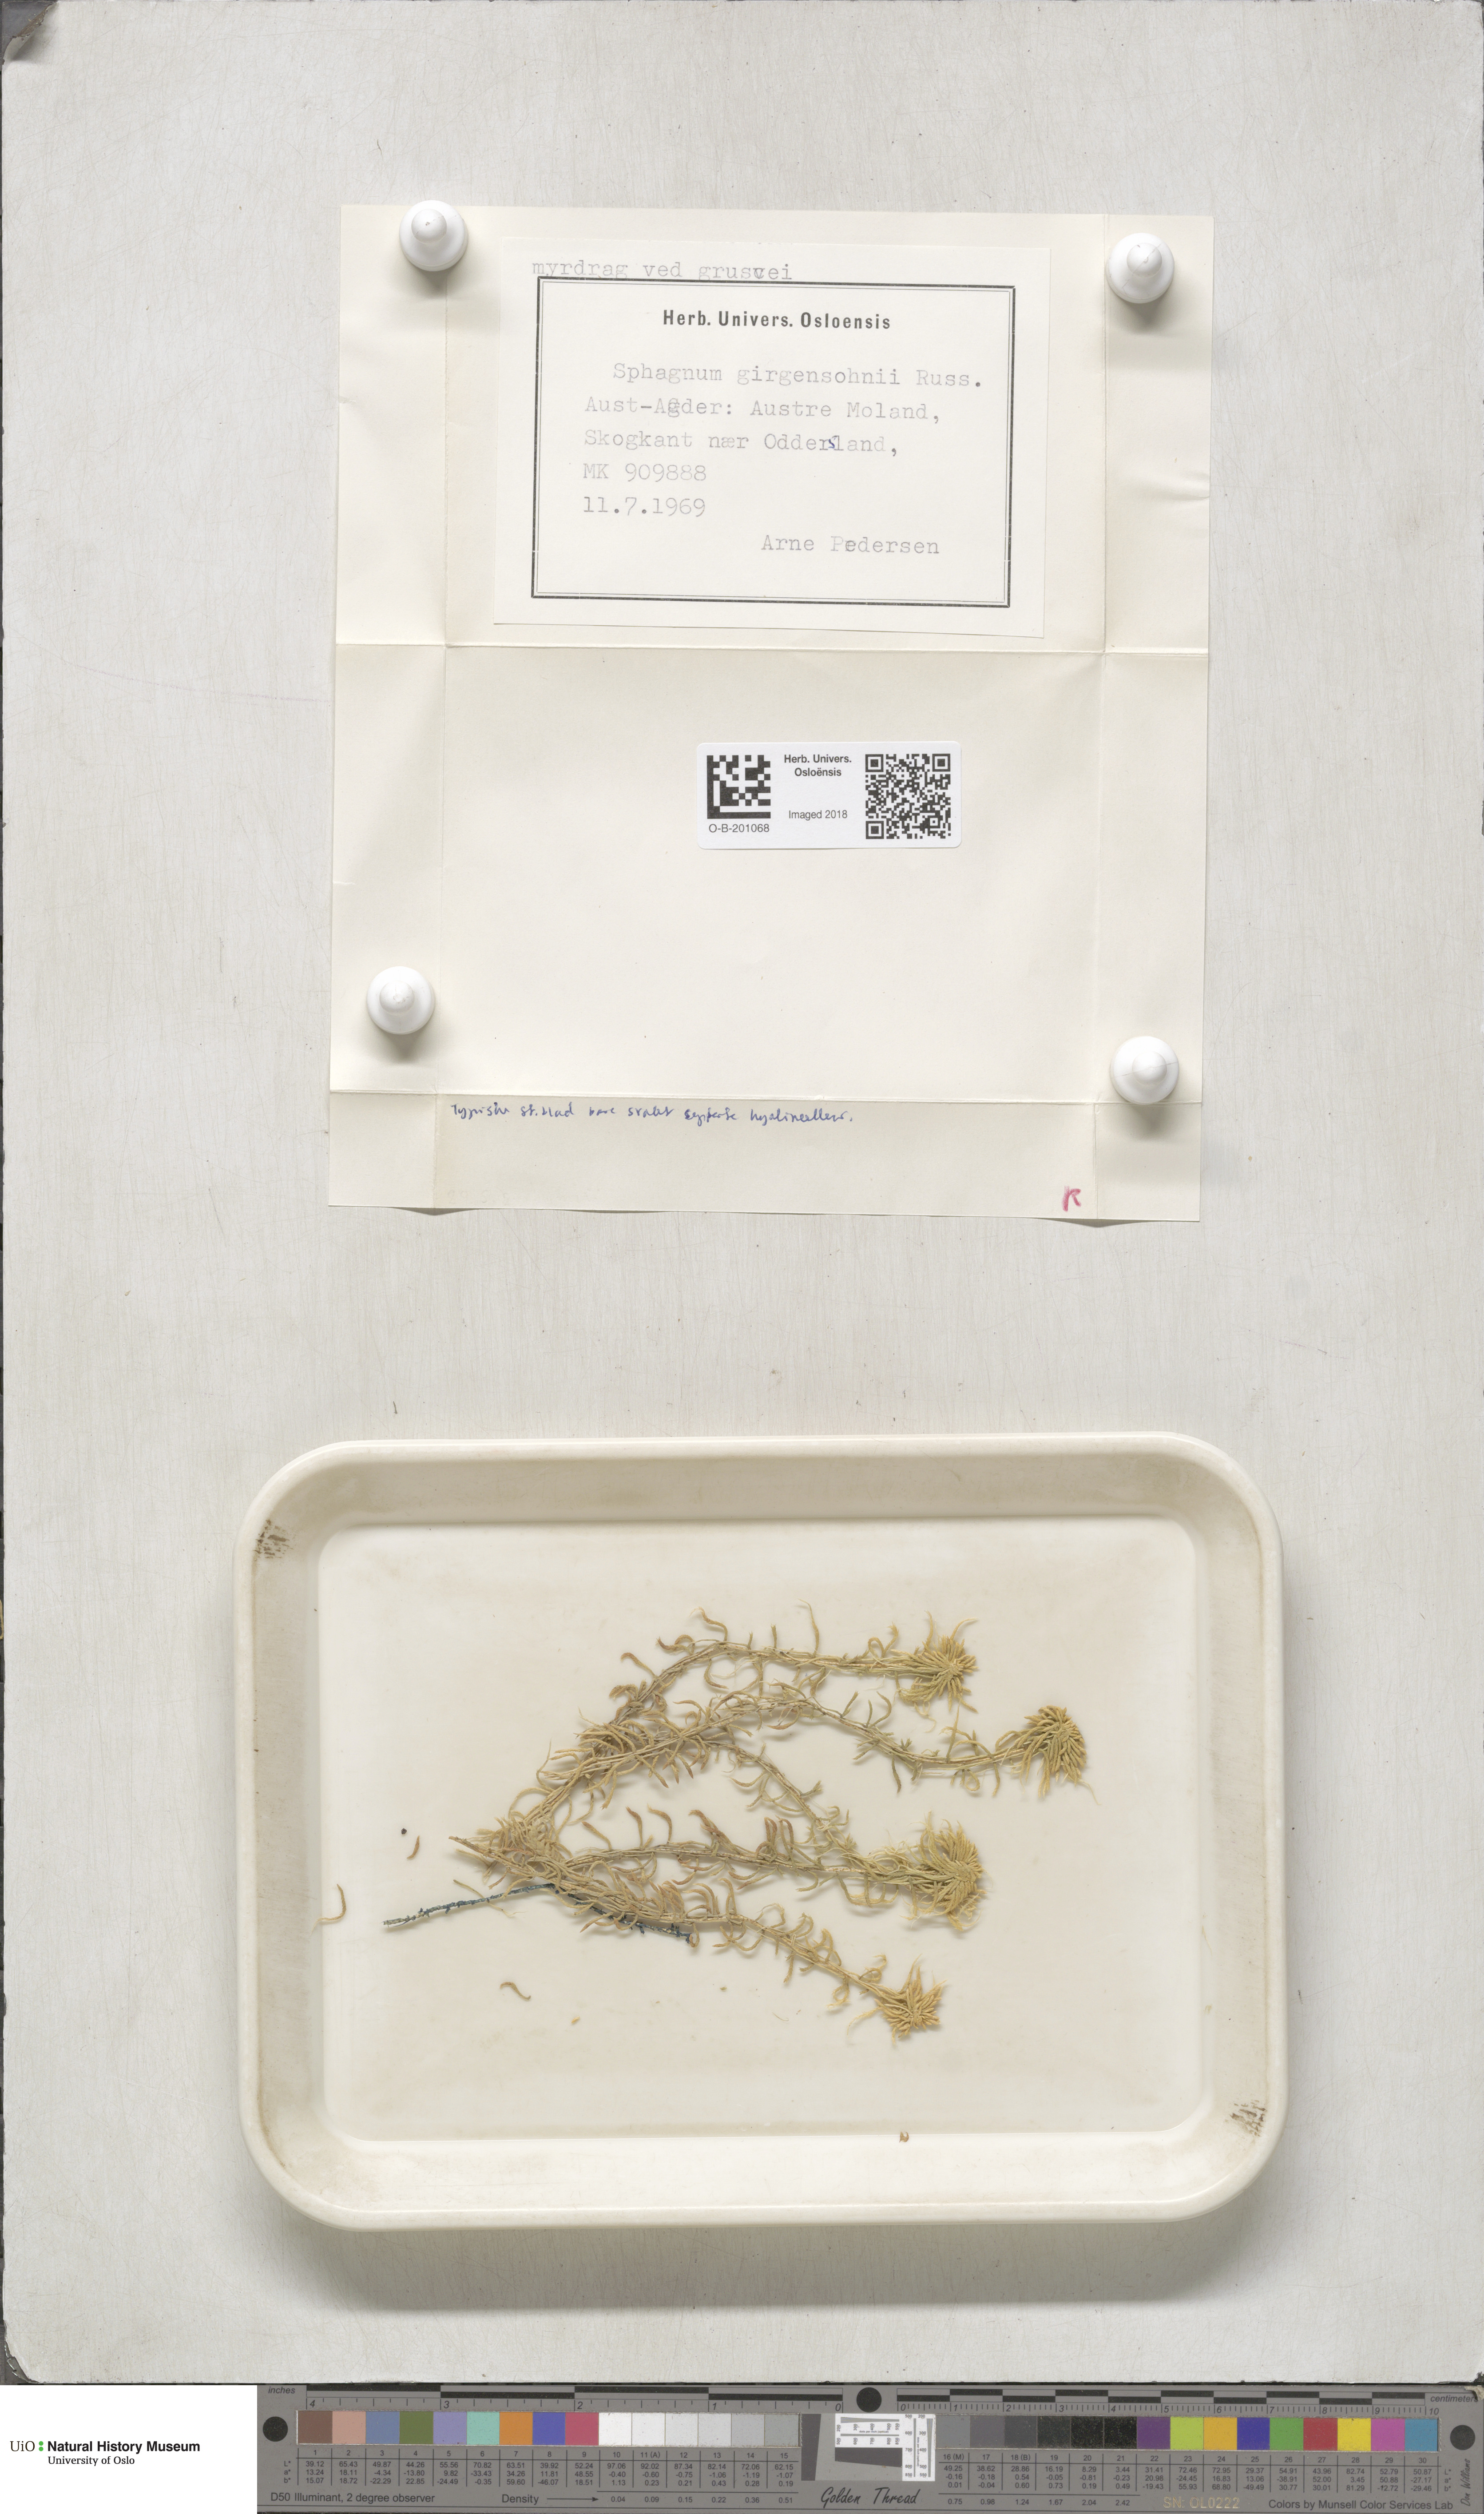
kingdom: Plantae
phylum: Bryophyta
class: Sphagnopsida
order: Sphagnales
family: Sphagnaceae
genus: Sphagnum
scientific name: Sphagnum girgensohnii
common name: Girgensohn's peat moss
